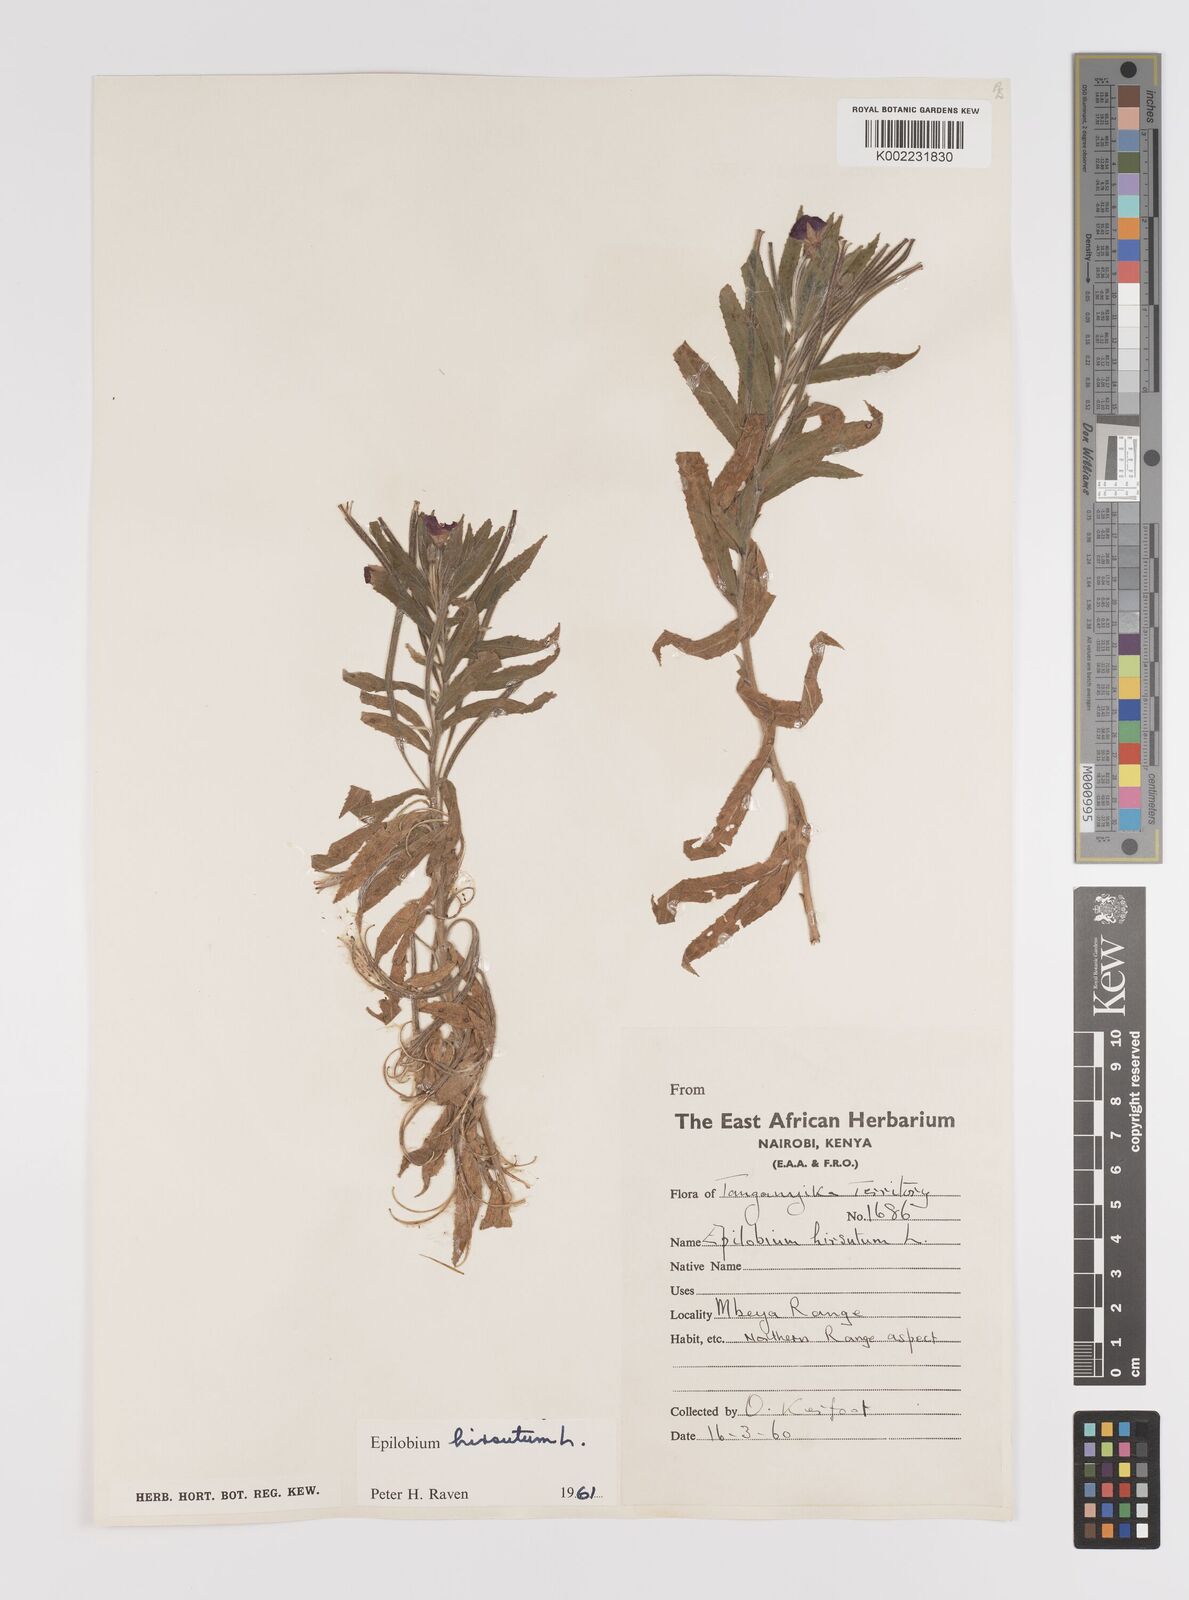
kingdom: Plantae
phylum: Tracheophyta
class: Magnoliopsida
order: Myrtales
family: Onagraceae
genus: Epilobium
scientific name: Epilobium hirsutum
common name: Great willowherb
